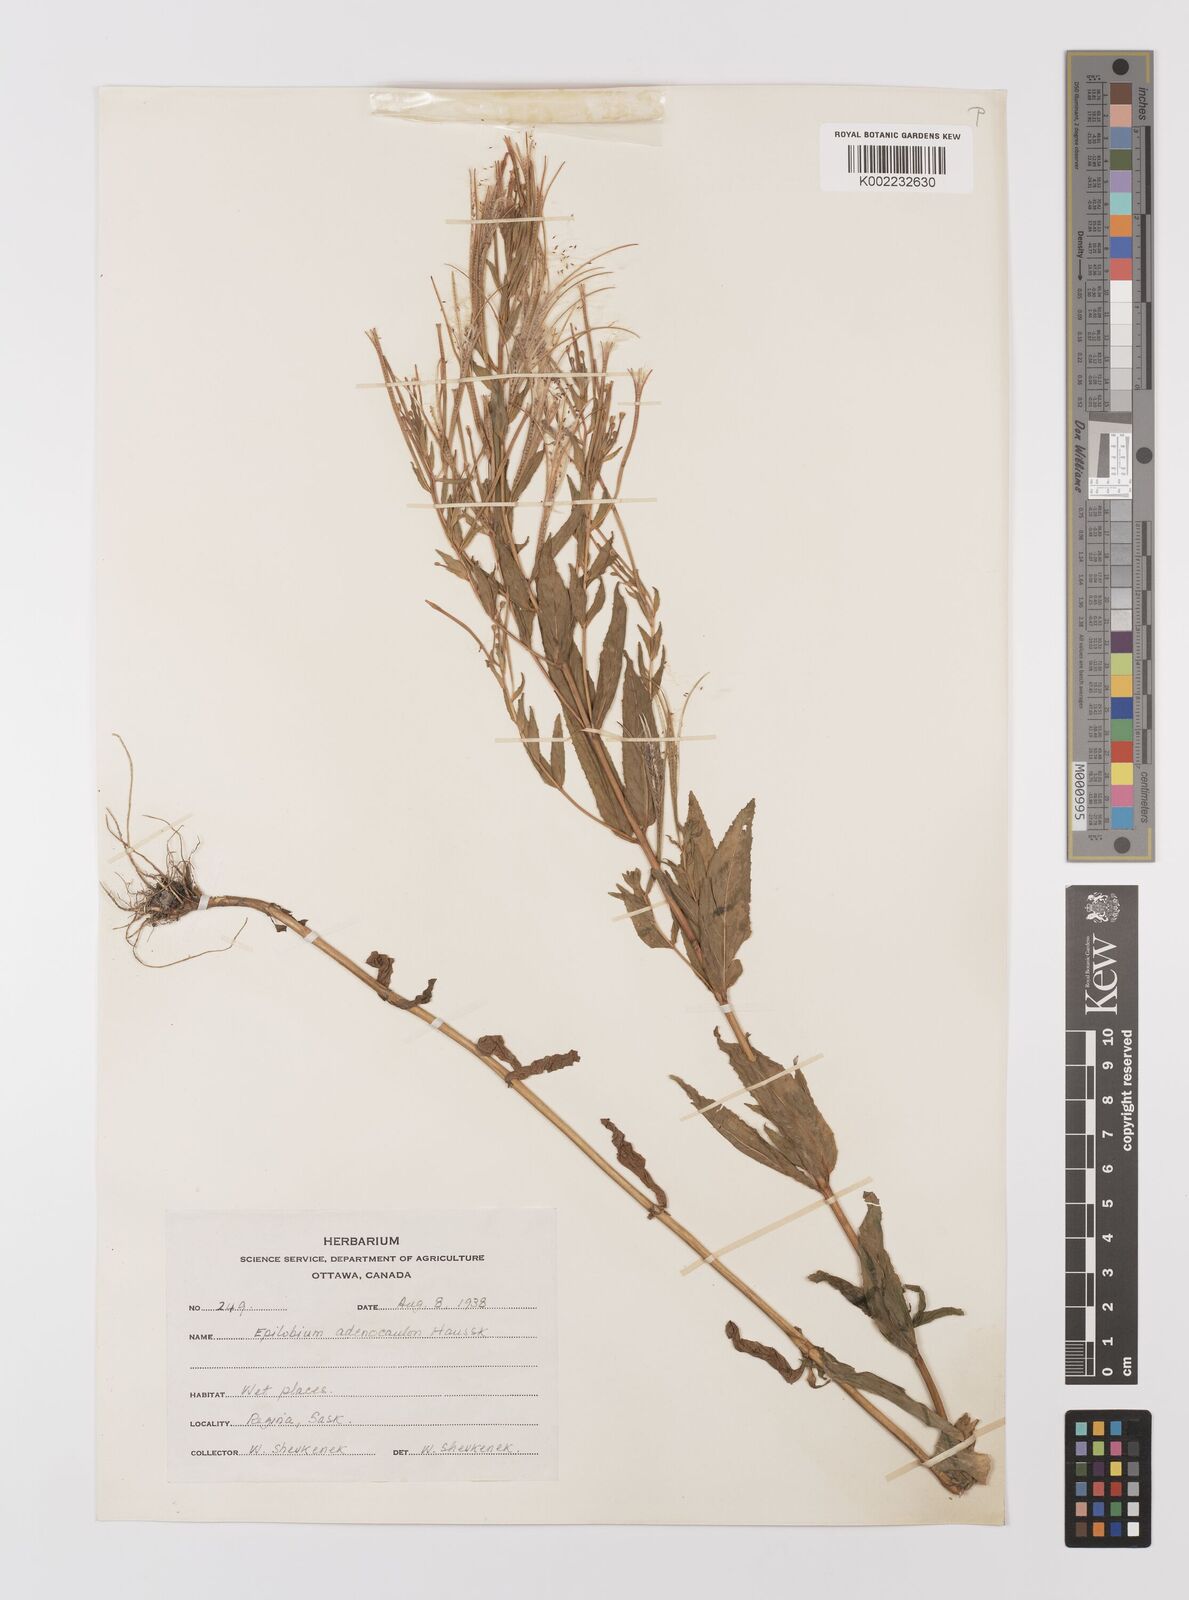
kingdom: Plantae
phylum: Tracheophyta
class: Magnoliopsida
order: Myrtales
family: Onagraceae
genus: Epilobium
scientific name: Epilobium ciliatum
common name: American willowherb
